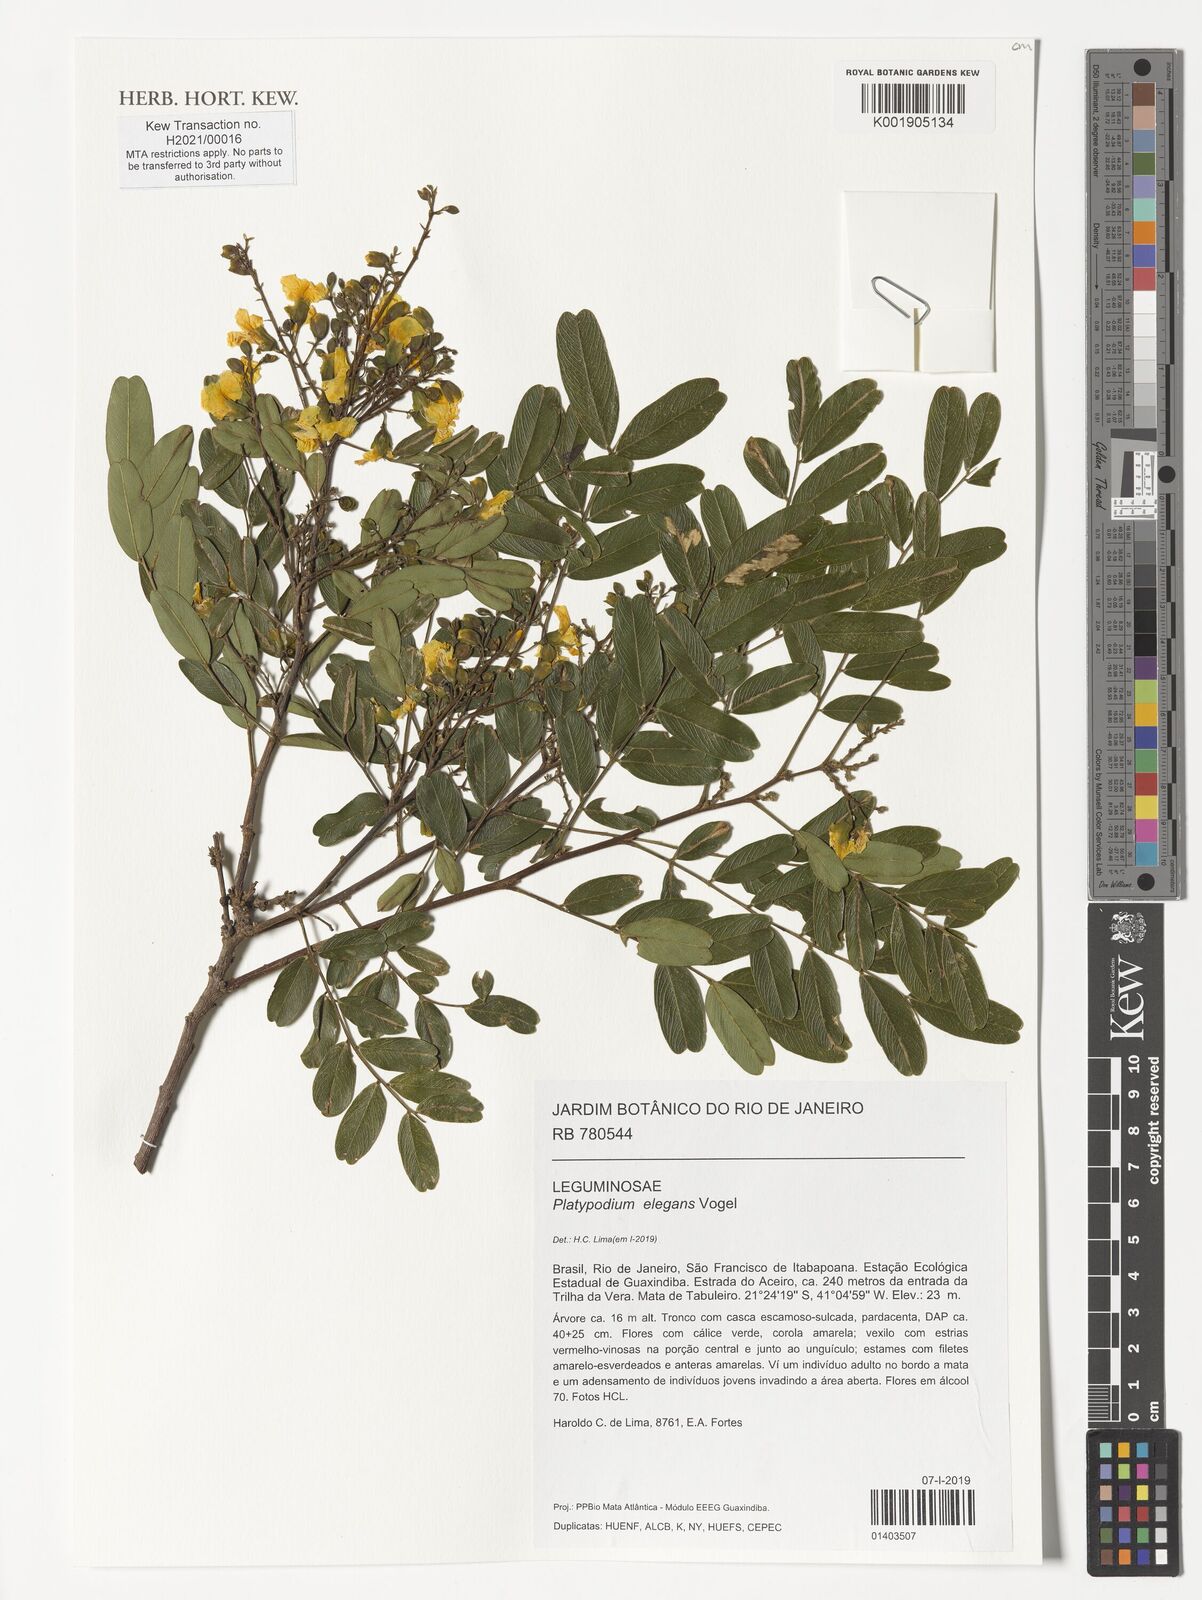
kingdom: Plantae
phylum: Tracheophyta
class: Magnoliopsida
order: Fabales
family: Fabaceae
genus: Platypodium
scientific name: Platypodium elegans
